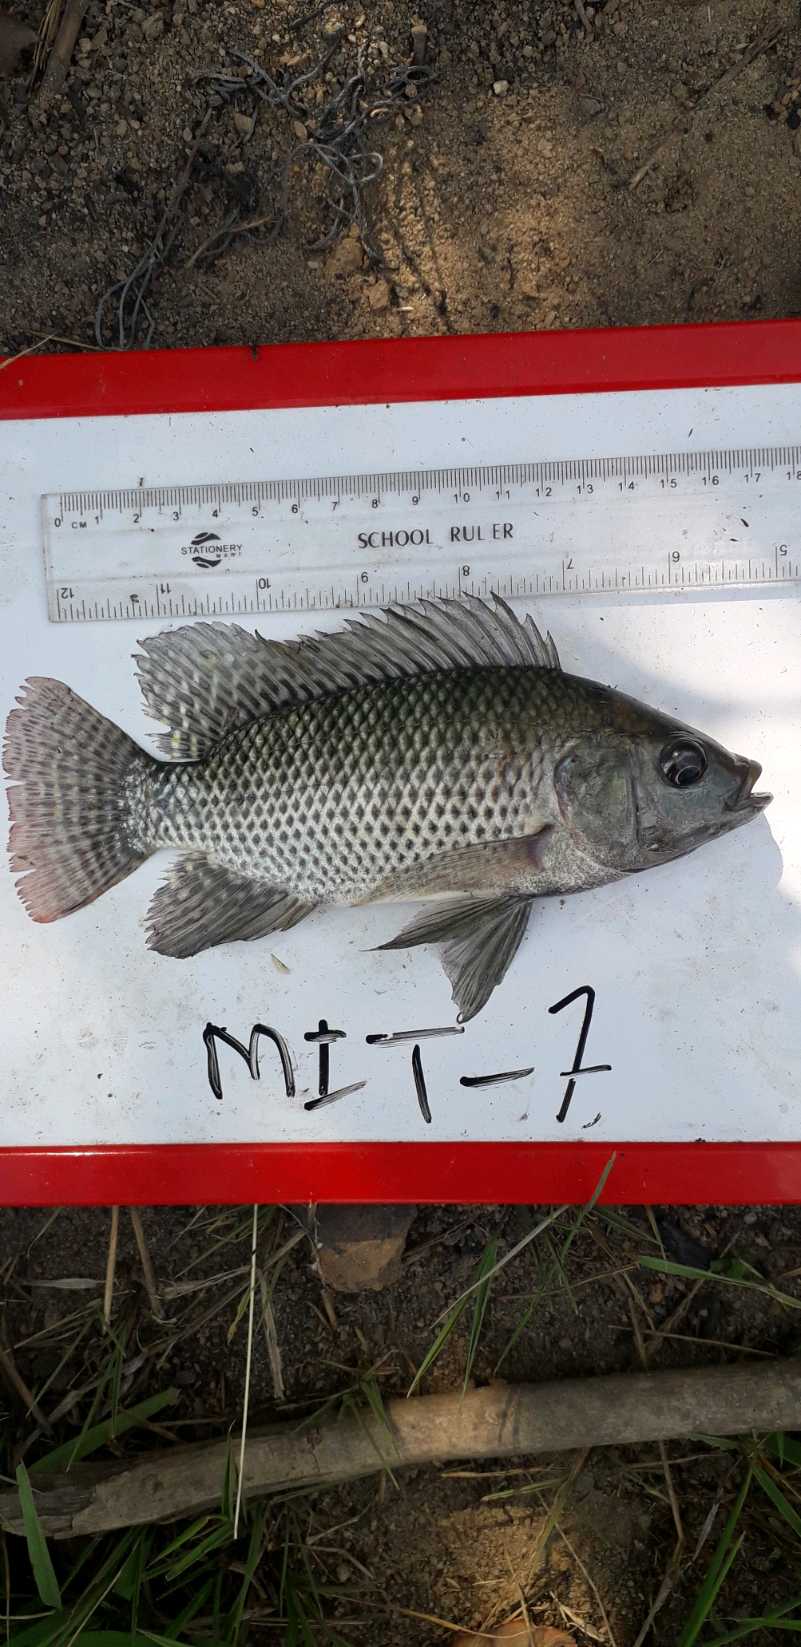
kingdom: Animalia
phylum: Chordata
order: Perciformes
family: Cichlidae
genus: Oreochromis
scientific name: Oreochromis niloticus
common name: Nile tilapia
